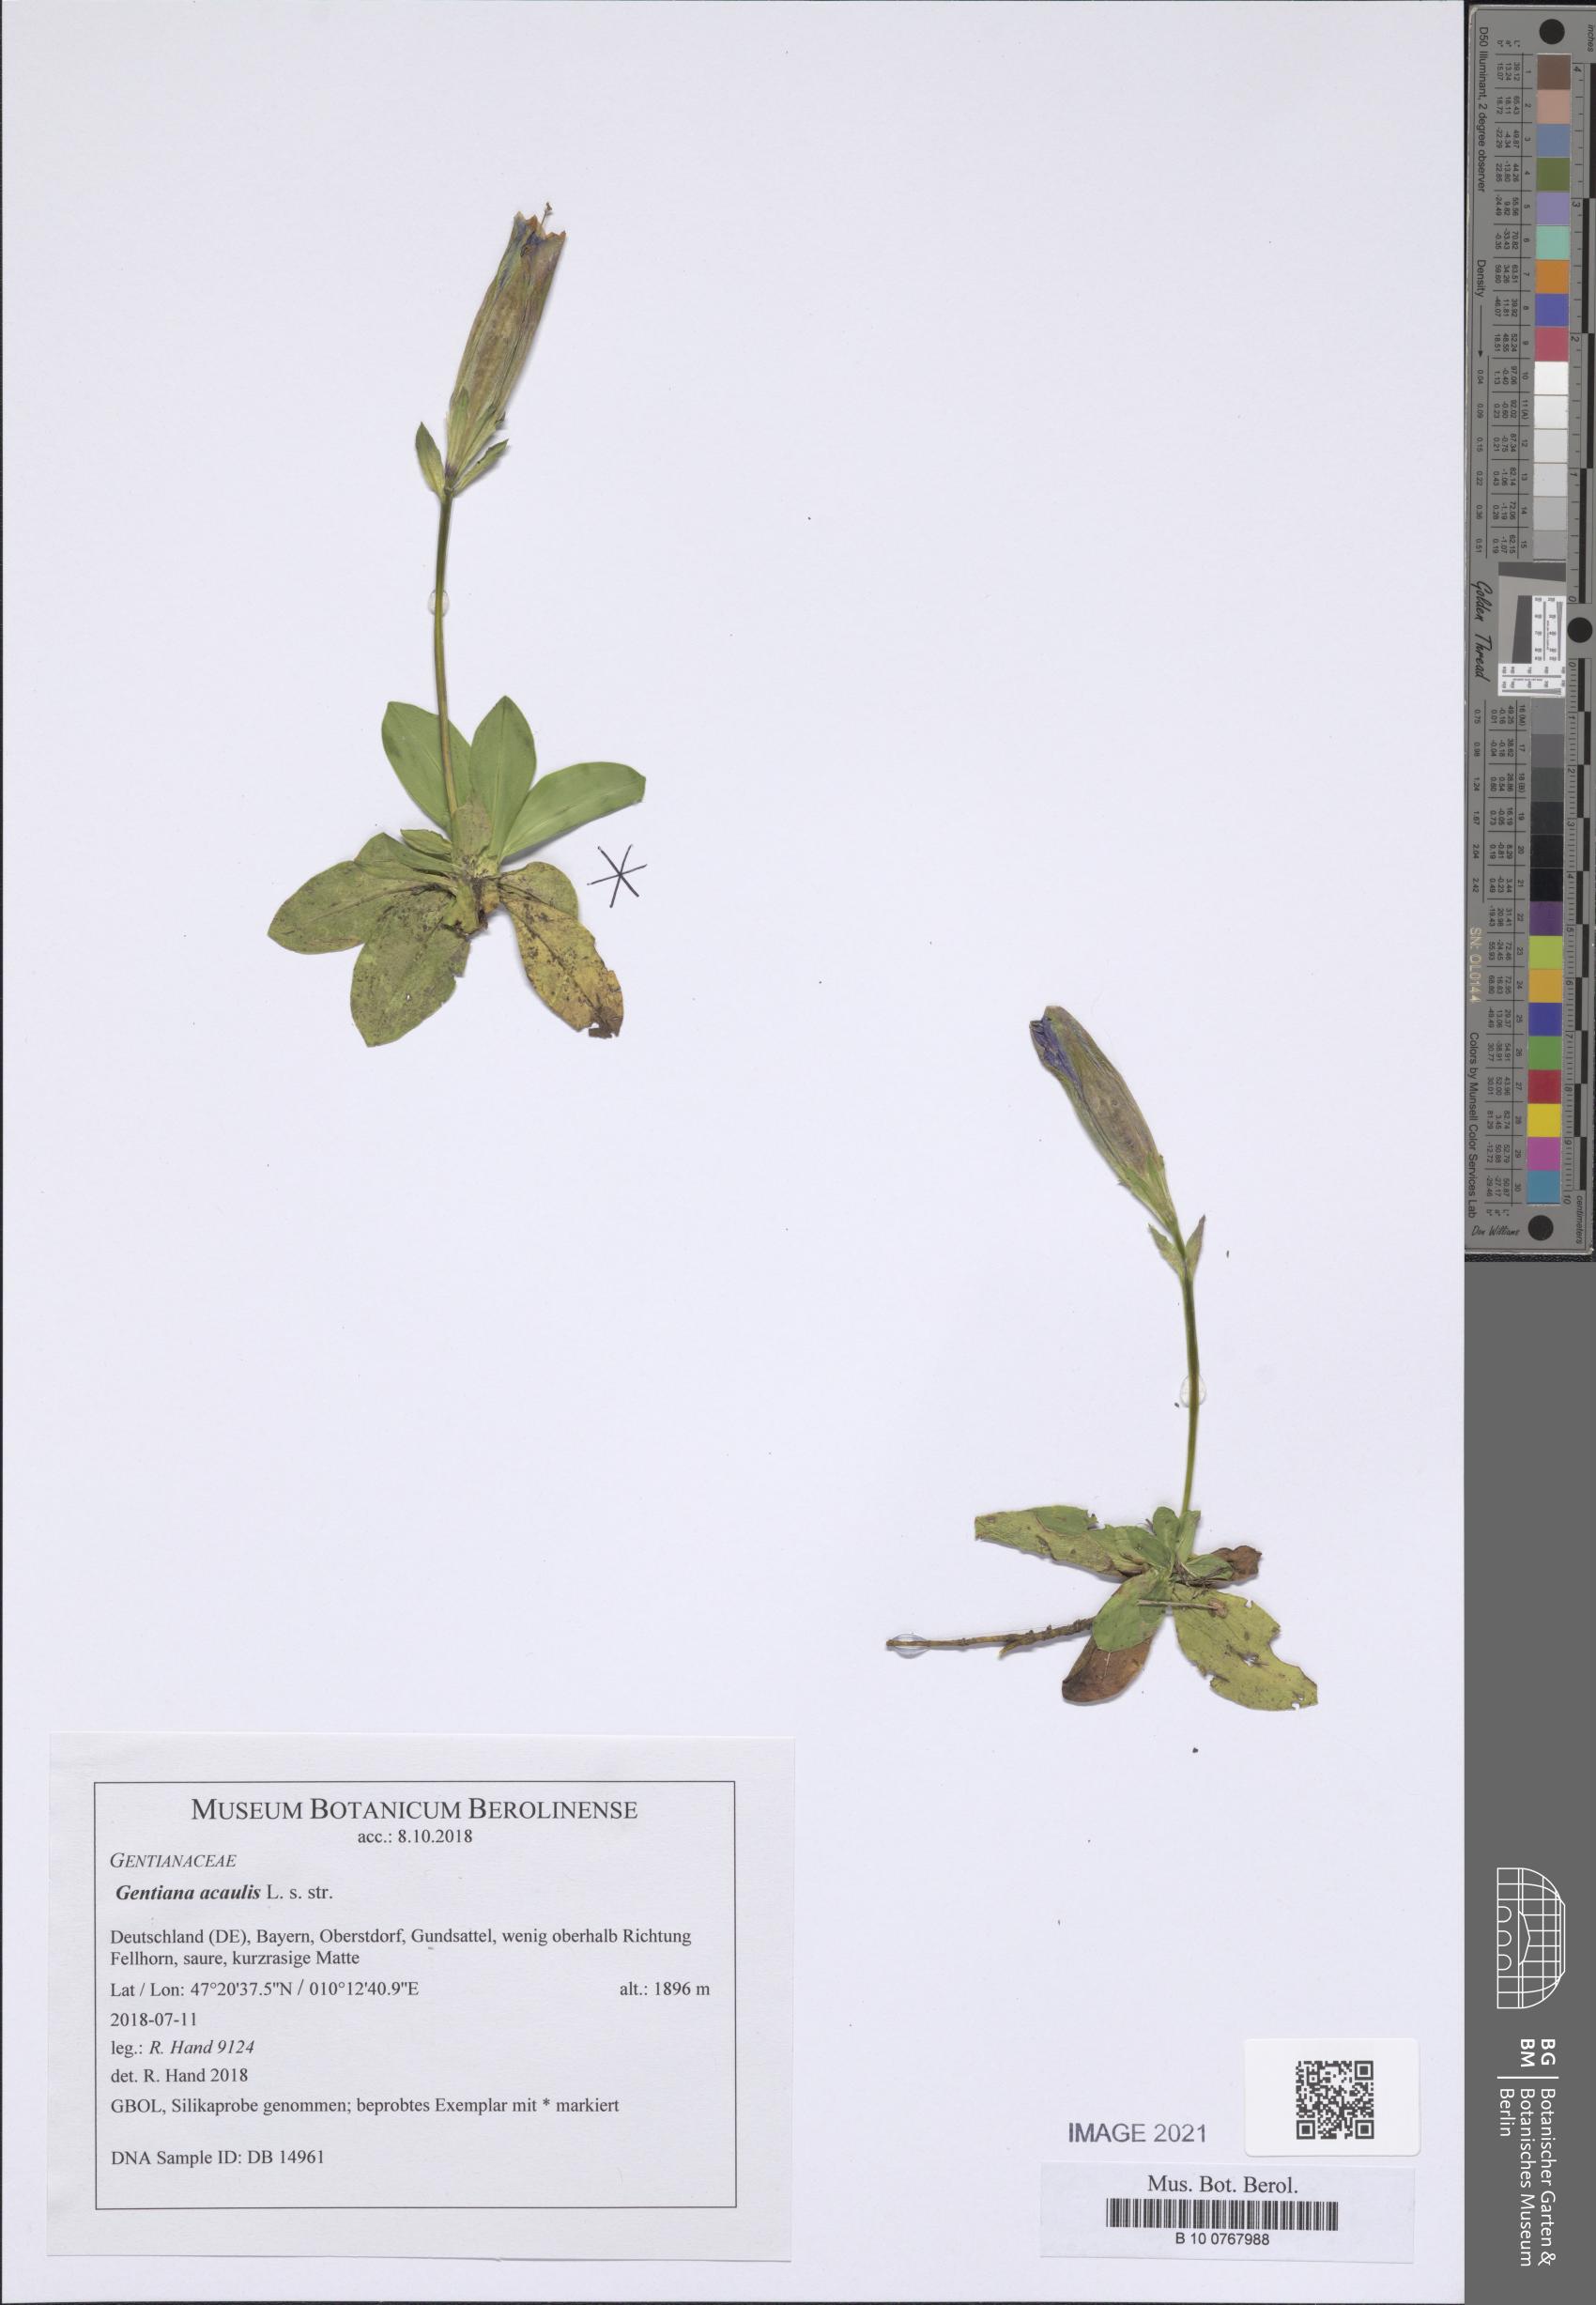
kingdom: Plantae
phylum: Tracheophyta
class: Magnoliopsida
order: Gentianales
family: Gentianaceae
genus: Gentiana
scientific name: Gentiana acaulis
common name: Trumpet gentian
